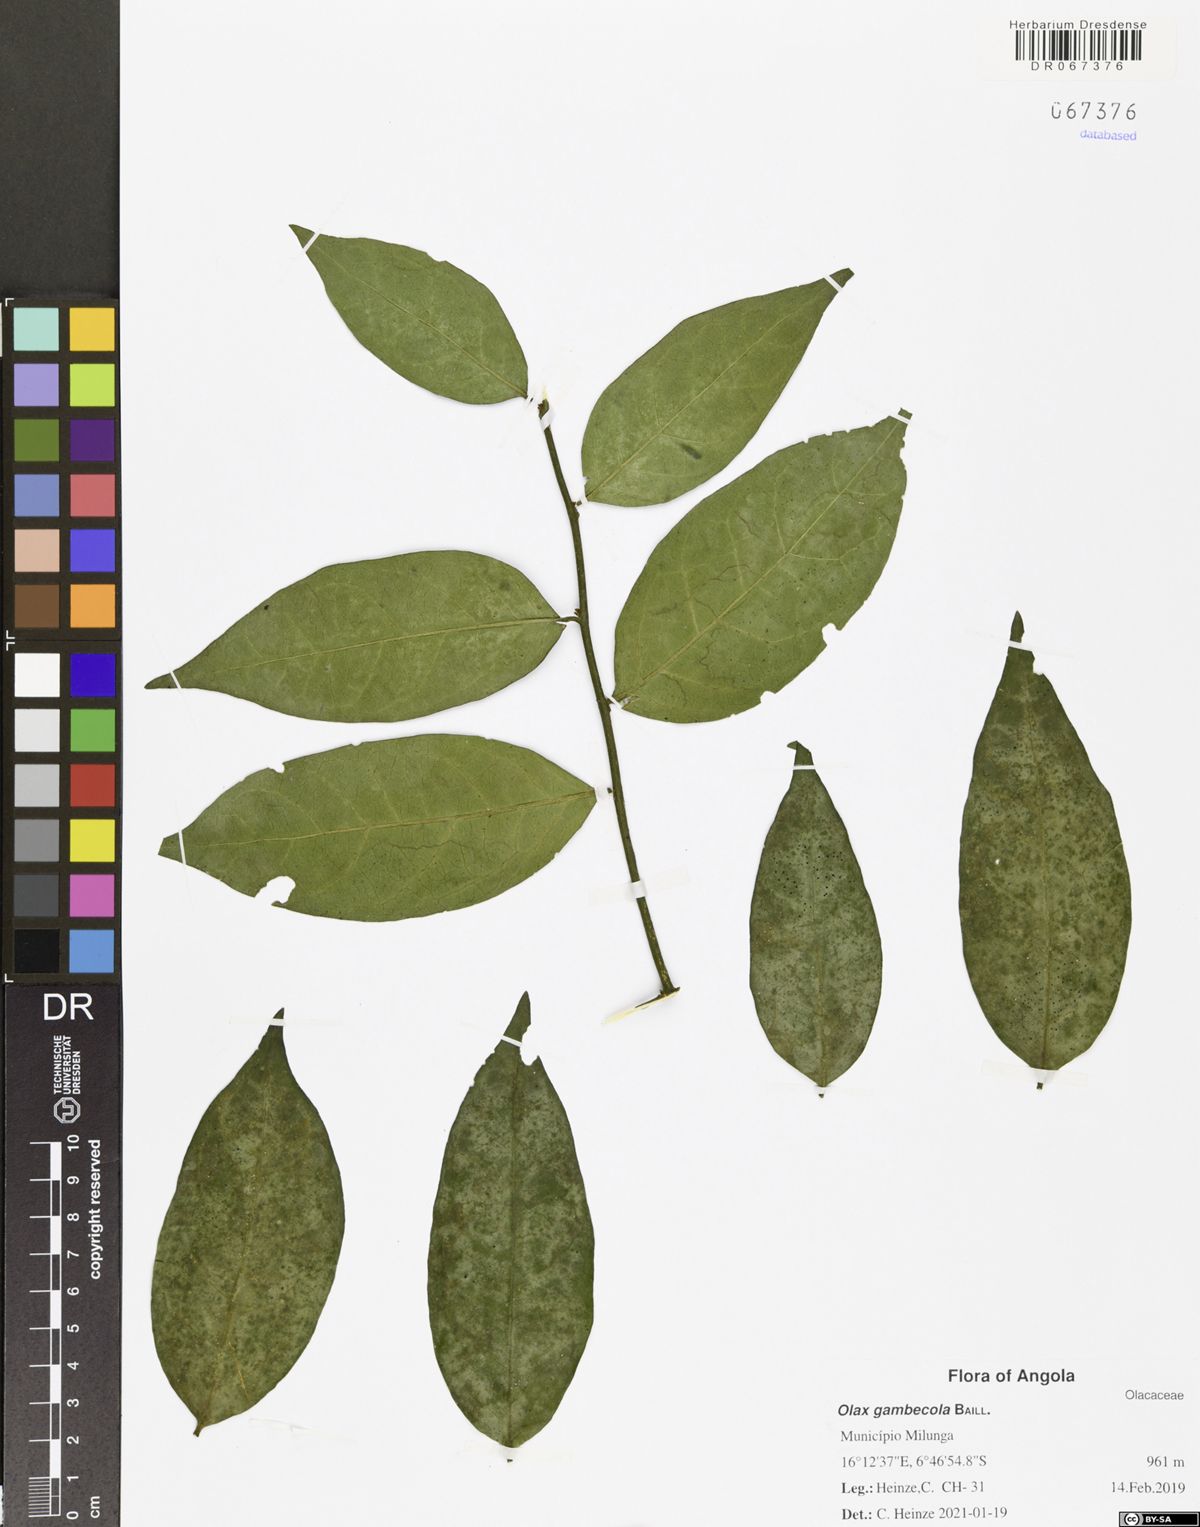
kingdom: Plantae
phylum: Tracheophyta
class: Magnoliopsida
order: Santalales
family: Olacaceae
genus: Olax
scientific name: Olax gambecola
